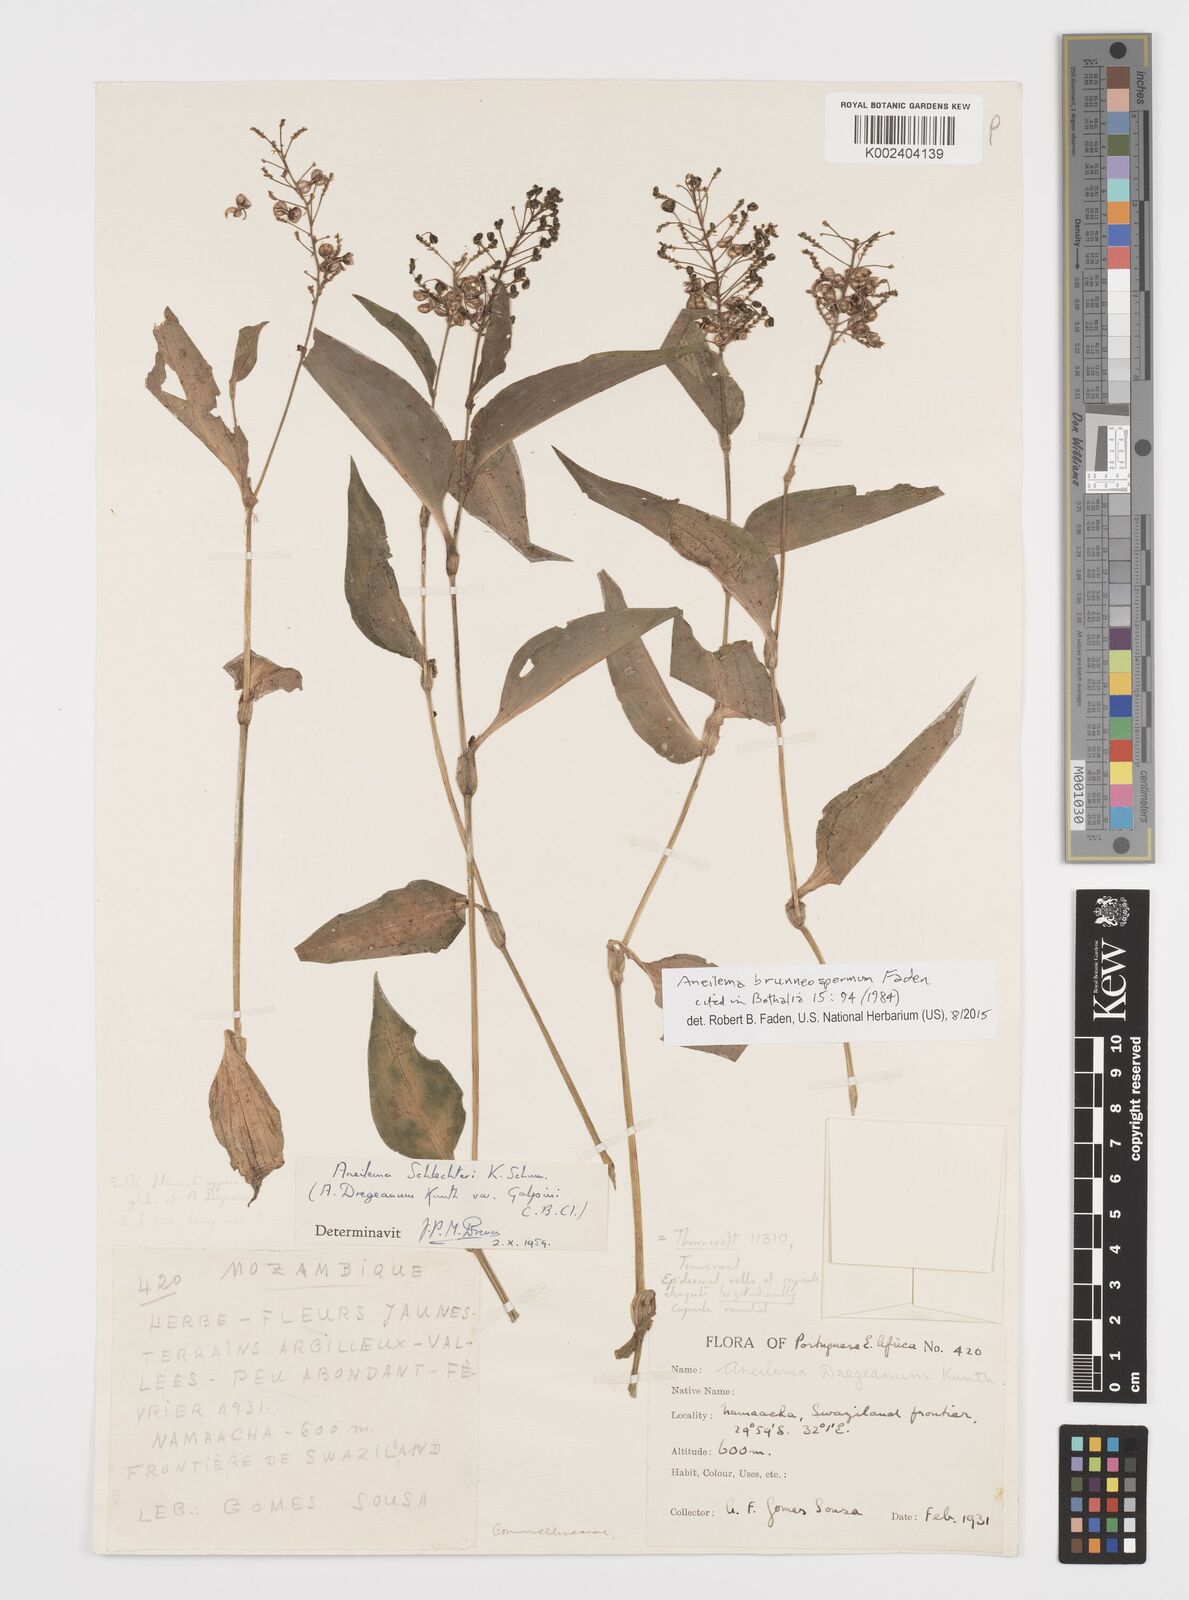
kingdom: Plantae
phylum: Tracheophyta
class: Liliopsida
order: Commelinales
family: Commelinaceae
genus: Aneilema
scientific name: Aneilema brunneospermum
